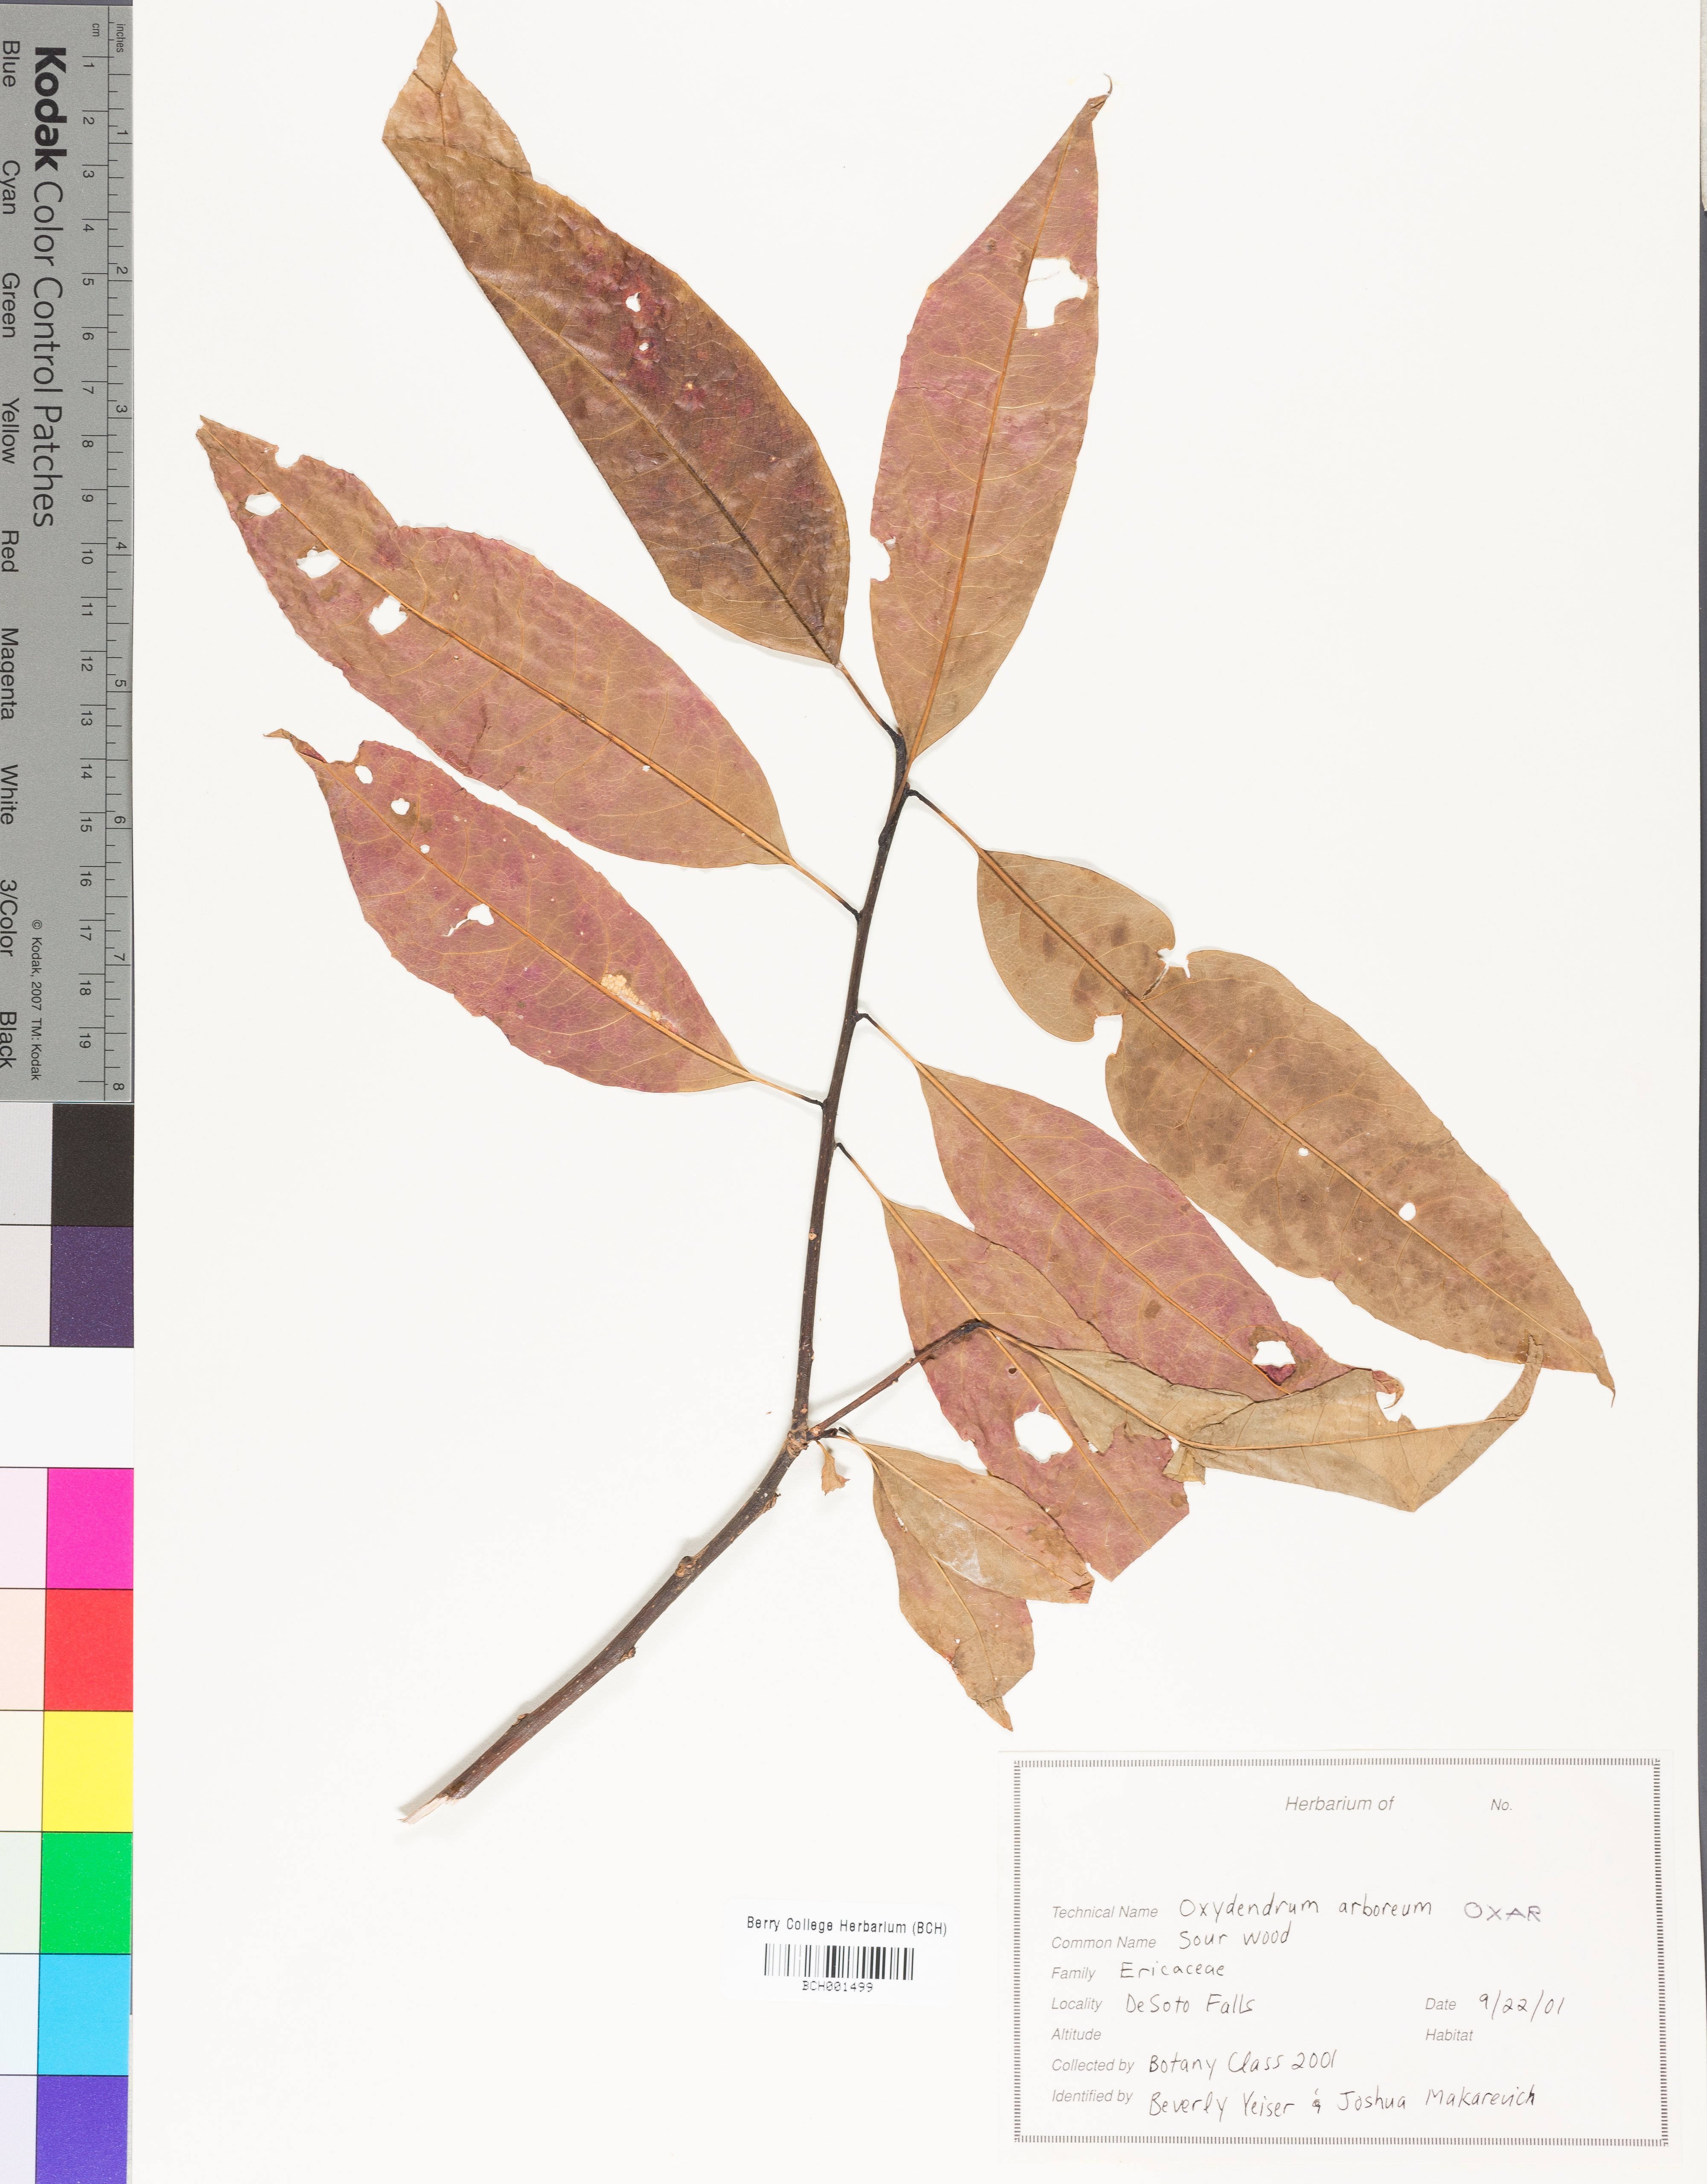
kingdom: Plantae
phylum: Tracheophyta
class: Magnoliopsida
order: Ericales
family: Ericaceae
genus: Oxydendrum
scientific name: Oxydendrum arboreum
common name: Sourwood
